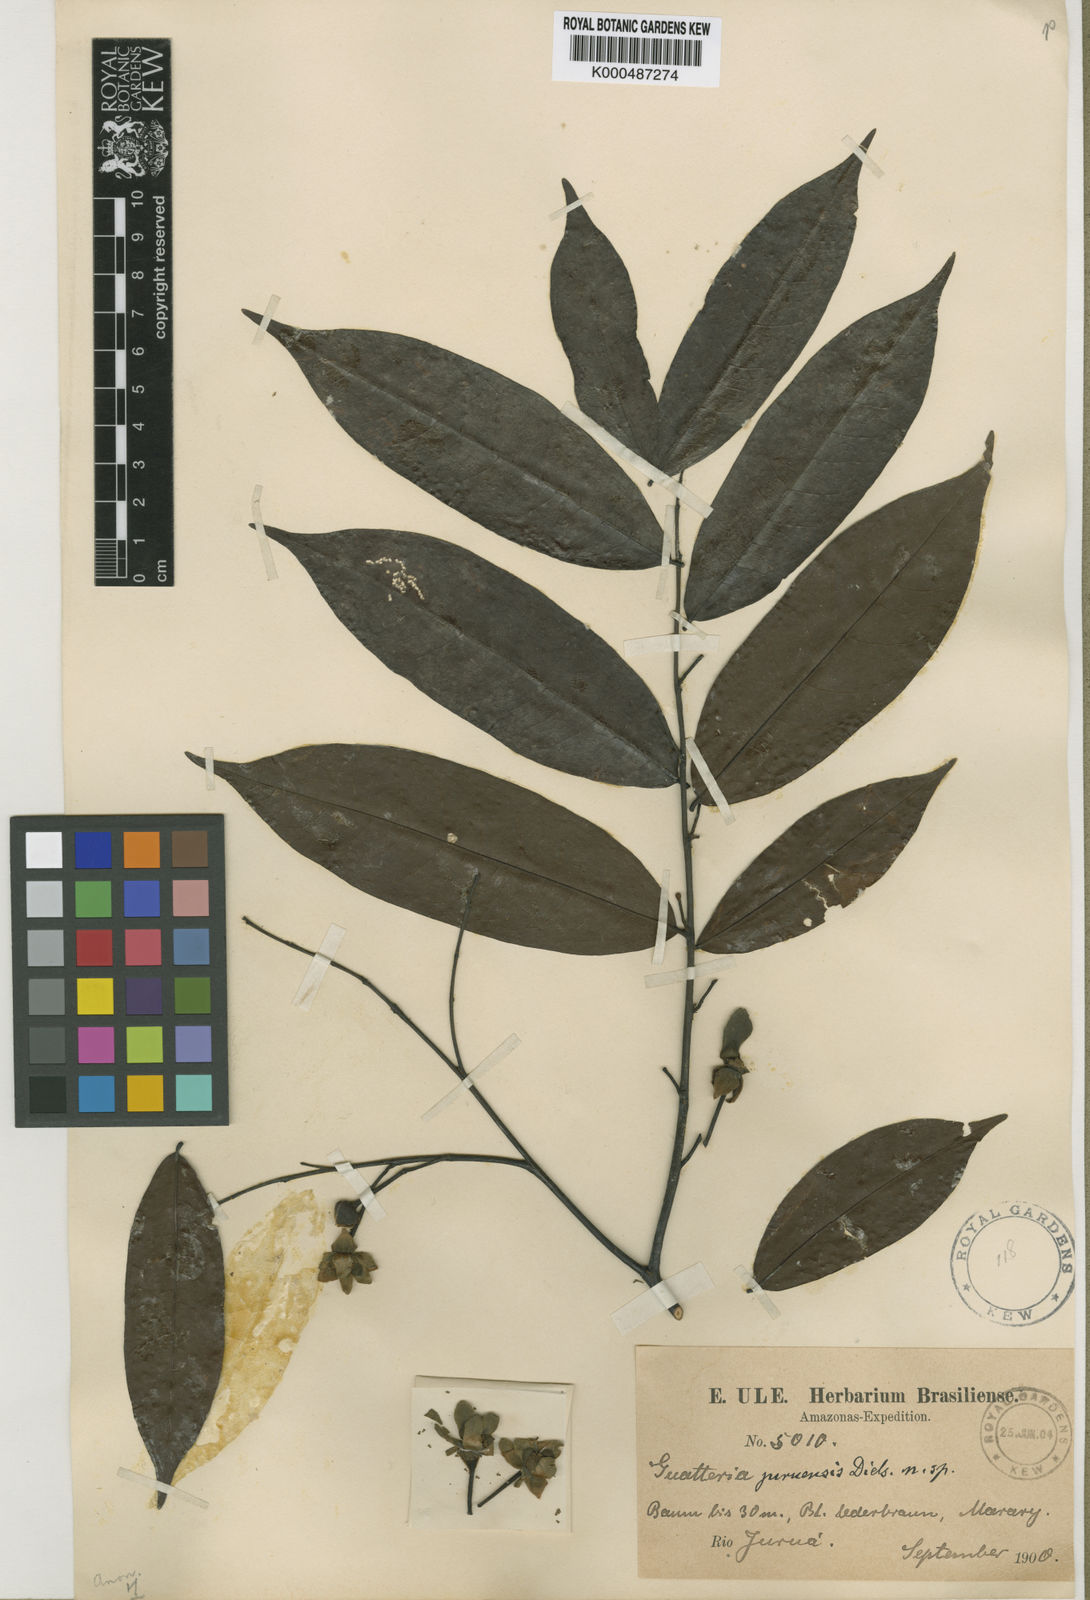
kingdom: Plantae
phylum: Tracheophyta
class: Magnoliopsida
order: Magnoliales
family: Annonaceae
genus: Guatteria
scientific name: Guatteria alutacea
